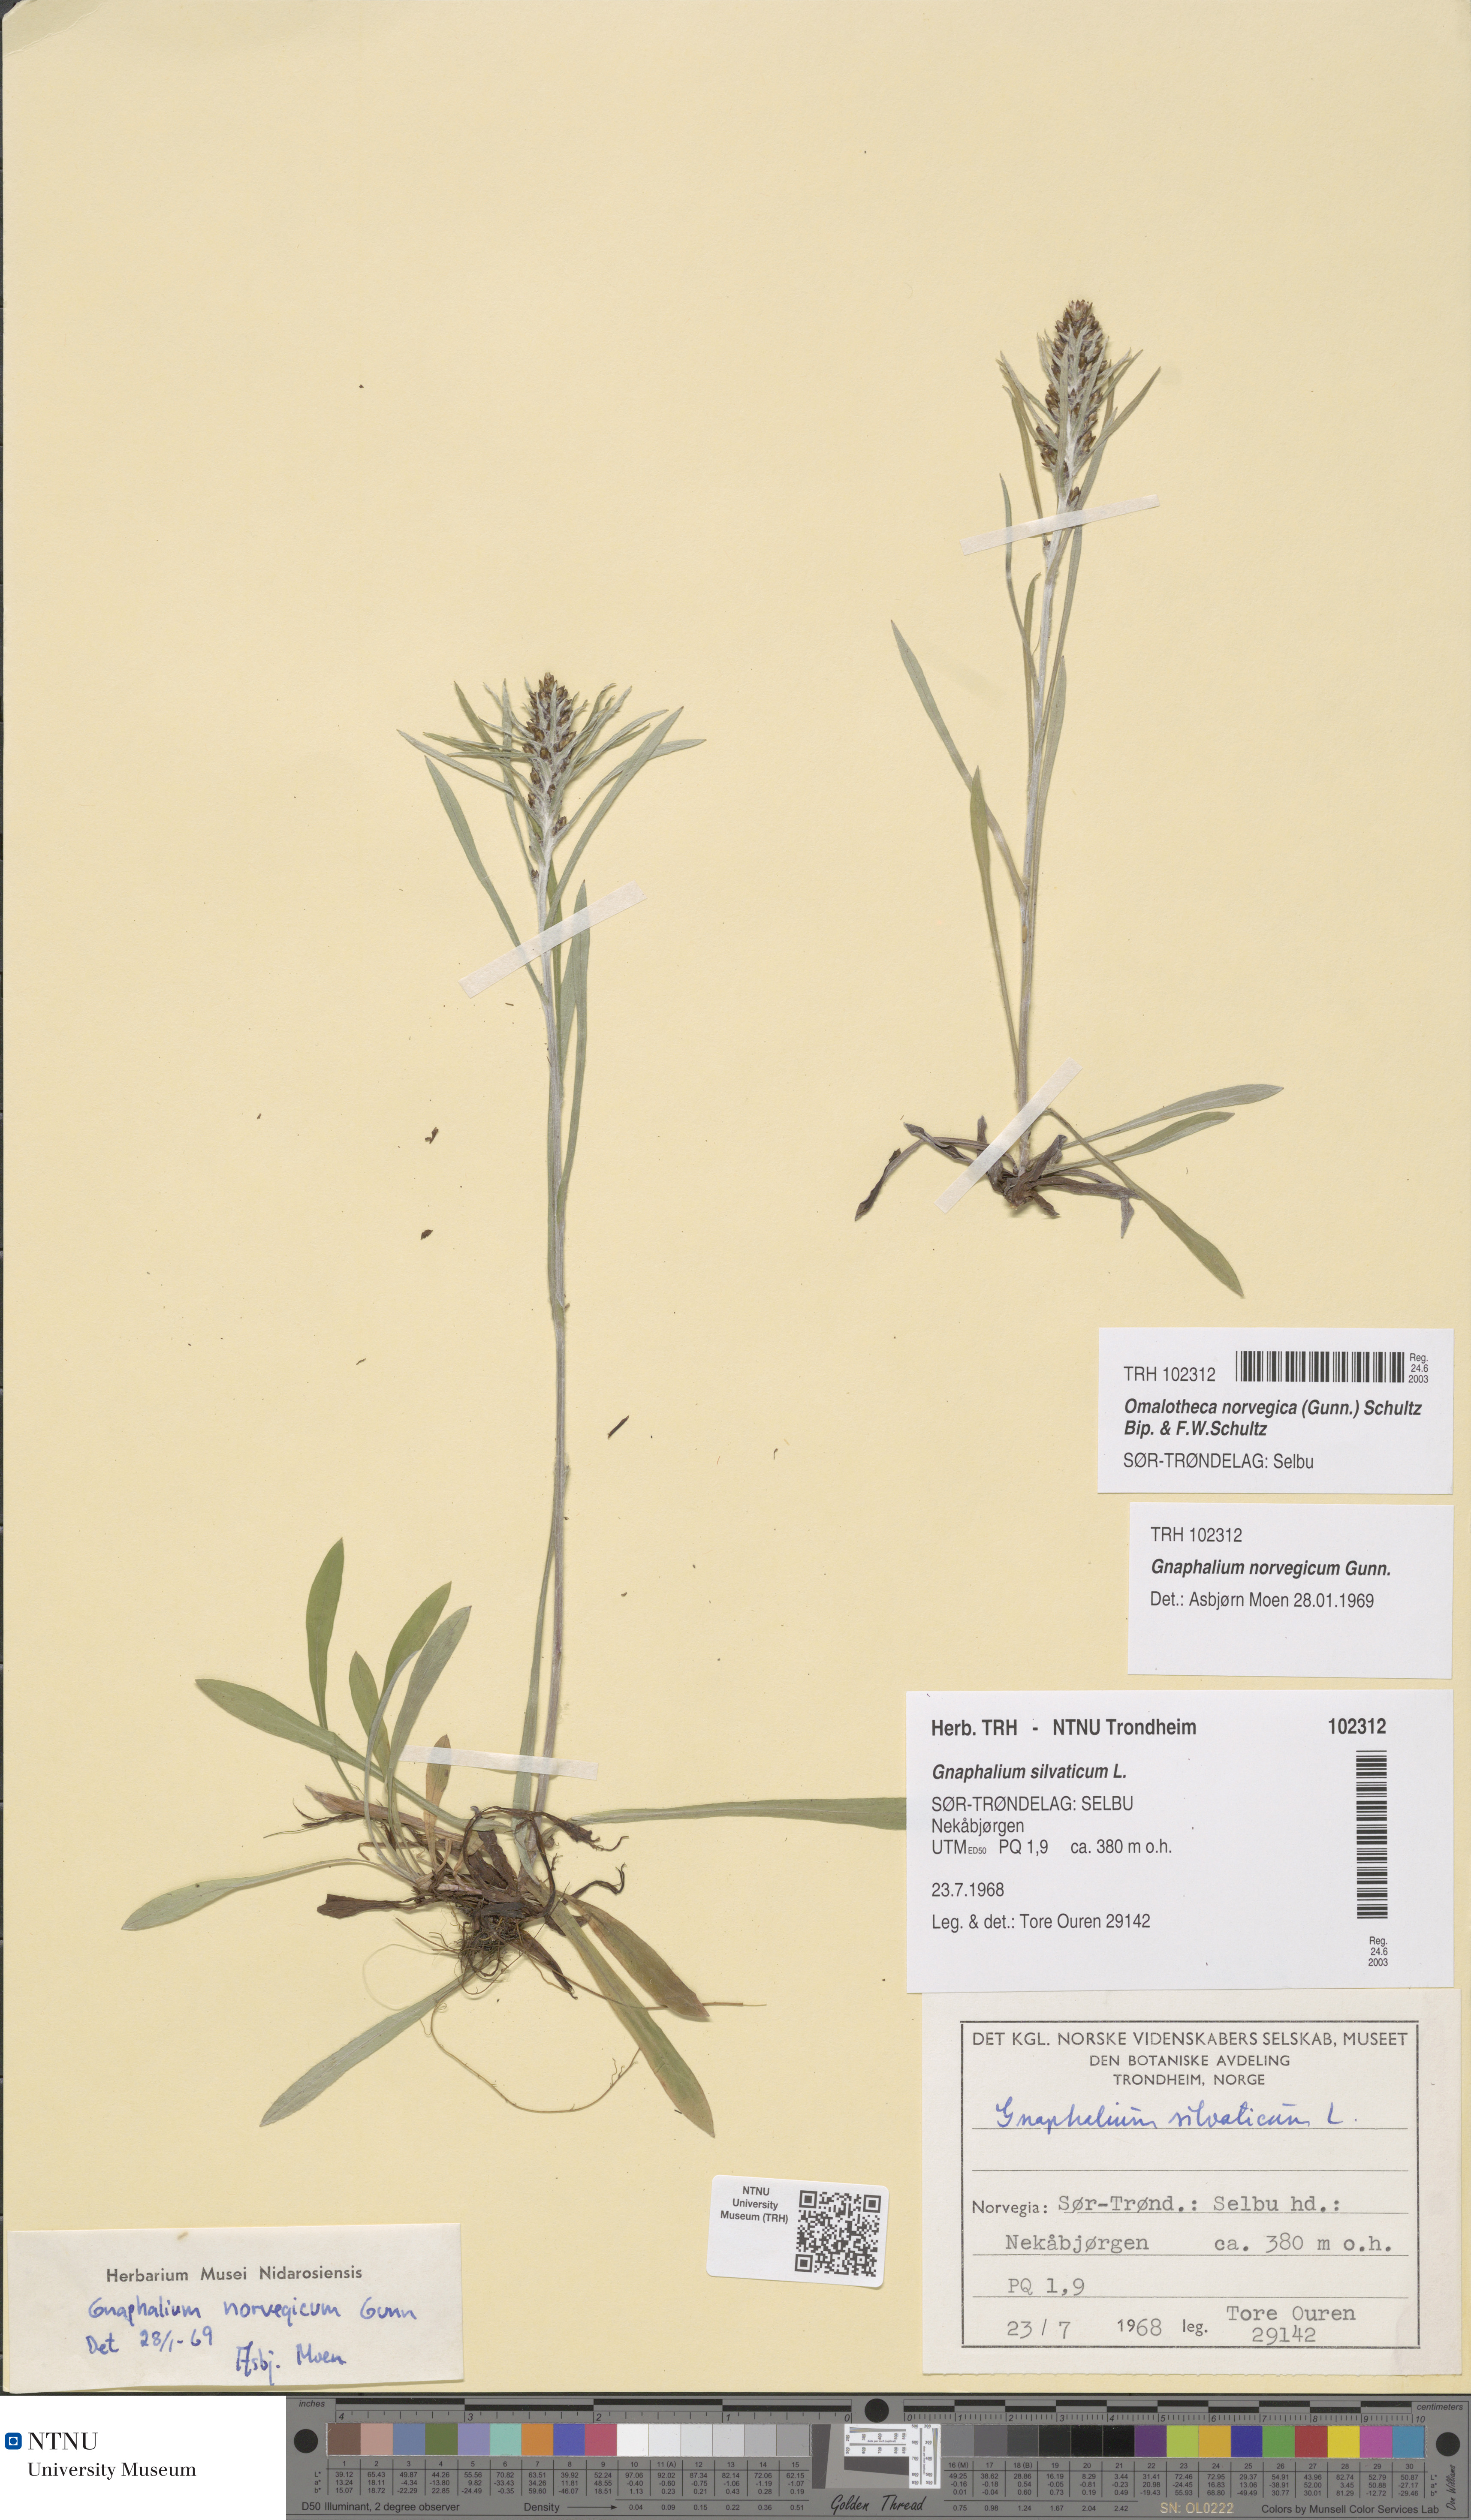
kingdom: Plantae
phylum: Tracheophyta
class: Magnoliopsida
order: Asterales
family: Asteraceae
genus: Omalotheca
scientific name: Omalotheca norvegica
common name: Norwegian arctic-cudweed
